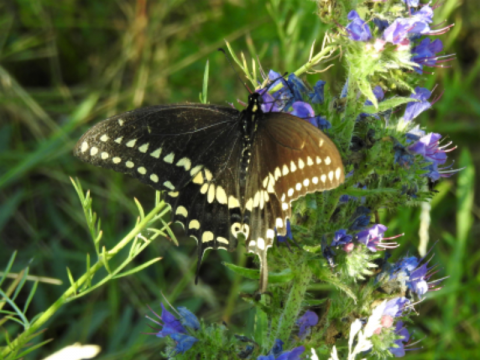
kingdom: Animalia
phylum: Arthropoda
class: Insecta
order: Lepidoptera
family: Papilionidae
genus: Papilio
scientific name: Papilio polyxenes
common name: Black Swallowtail
